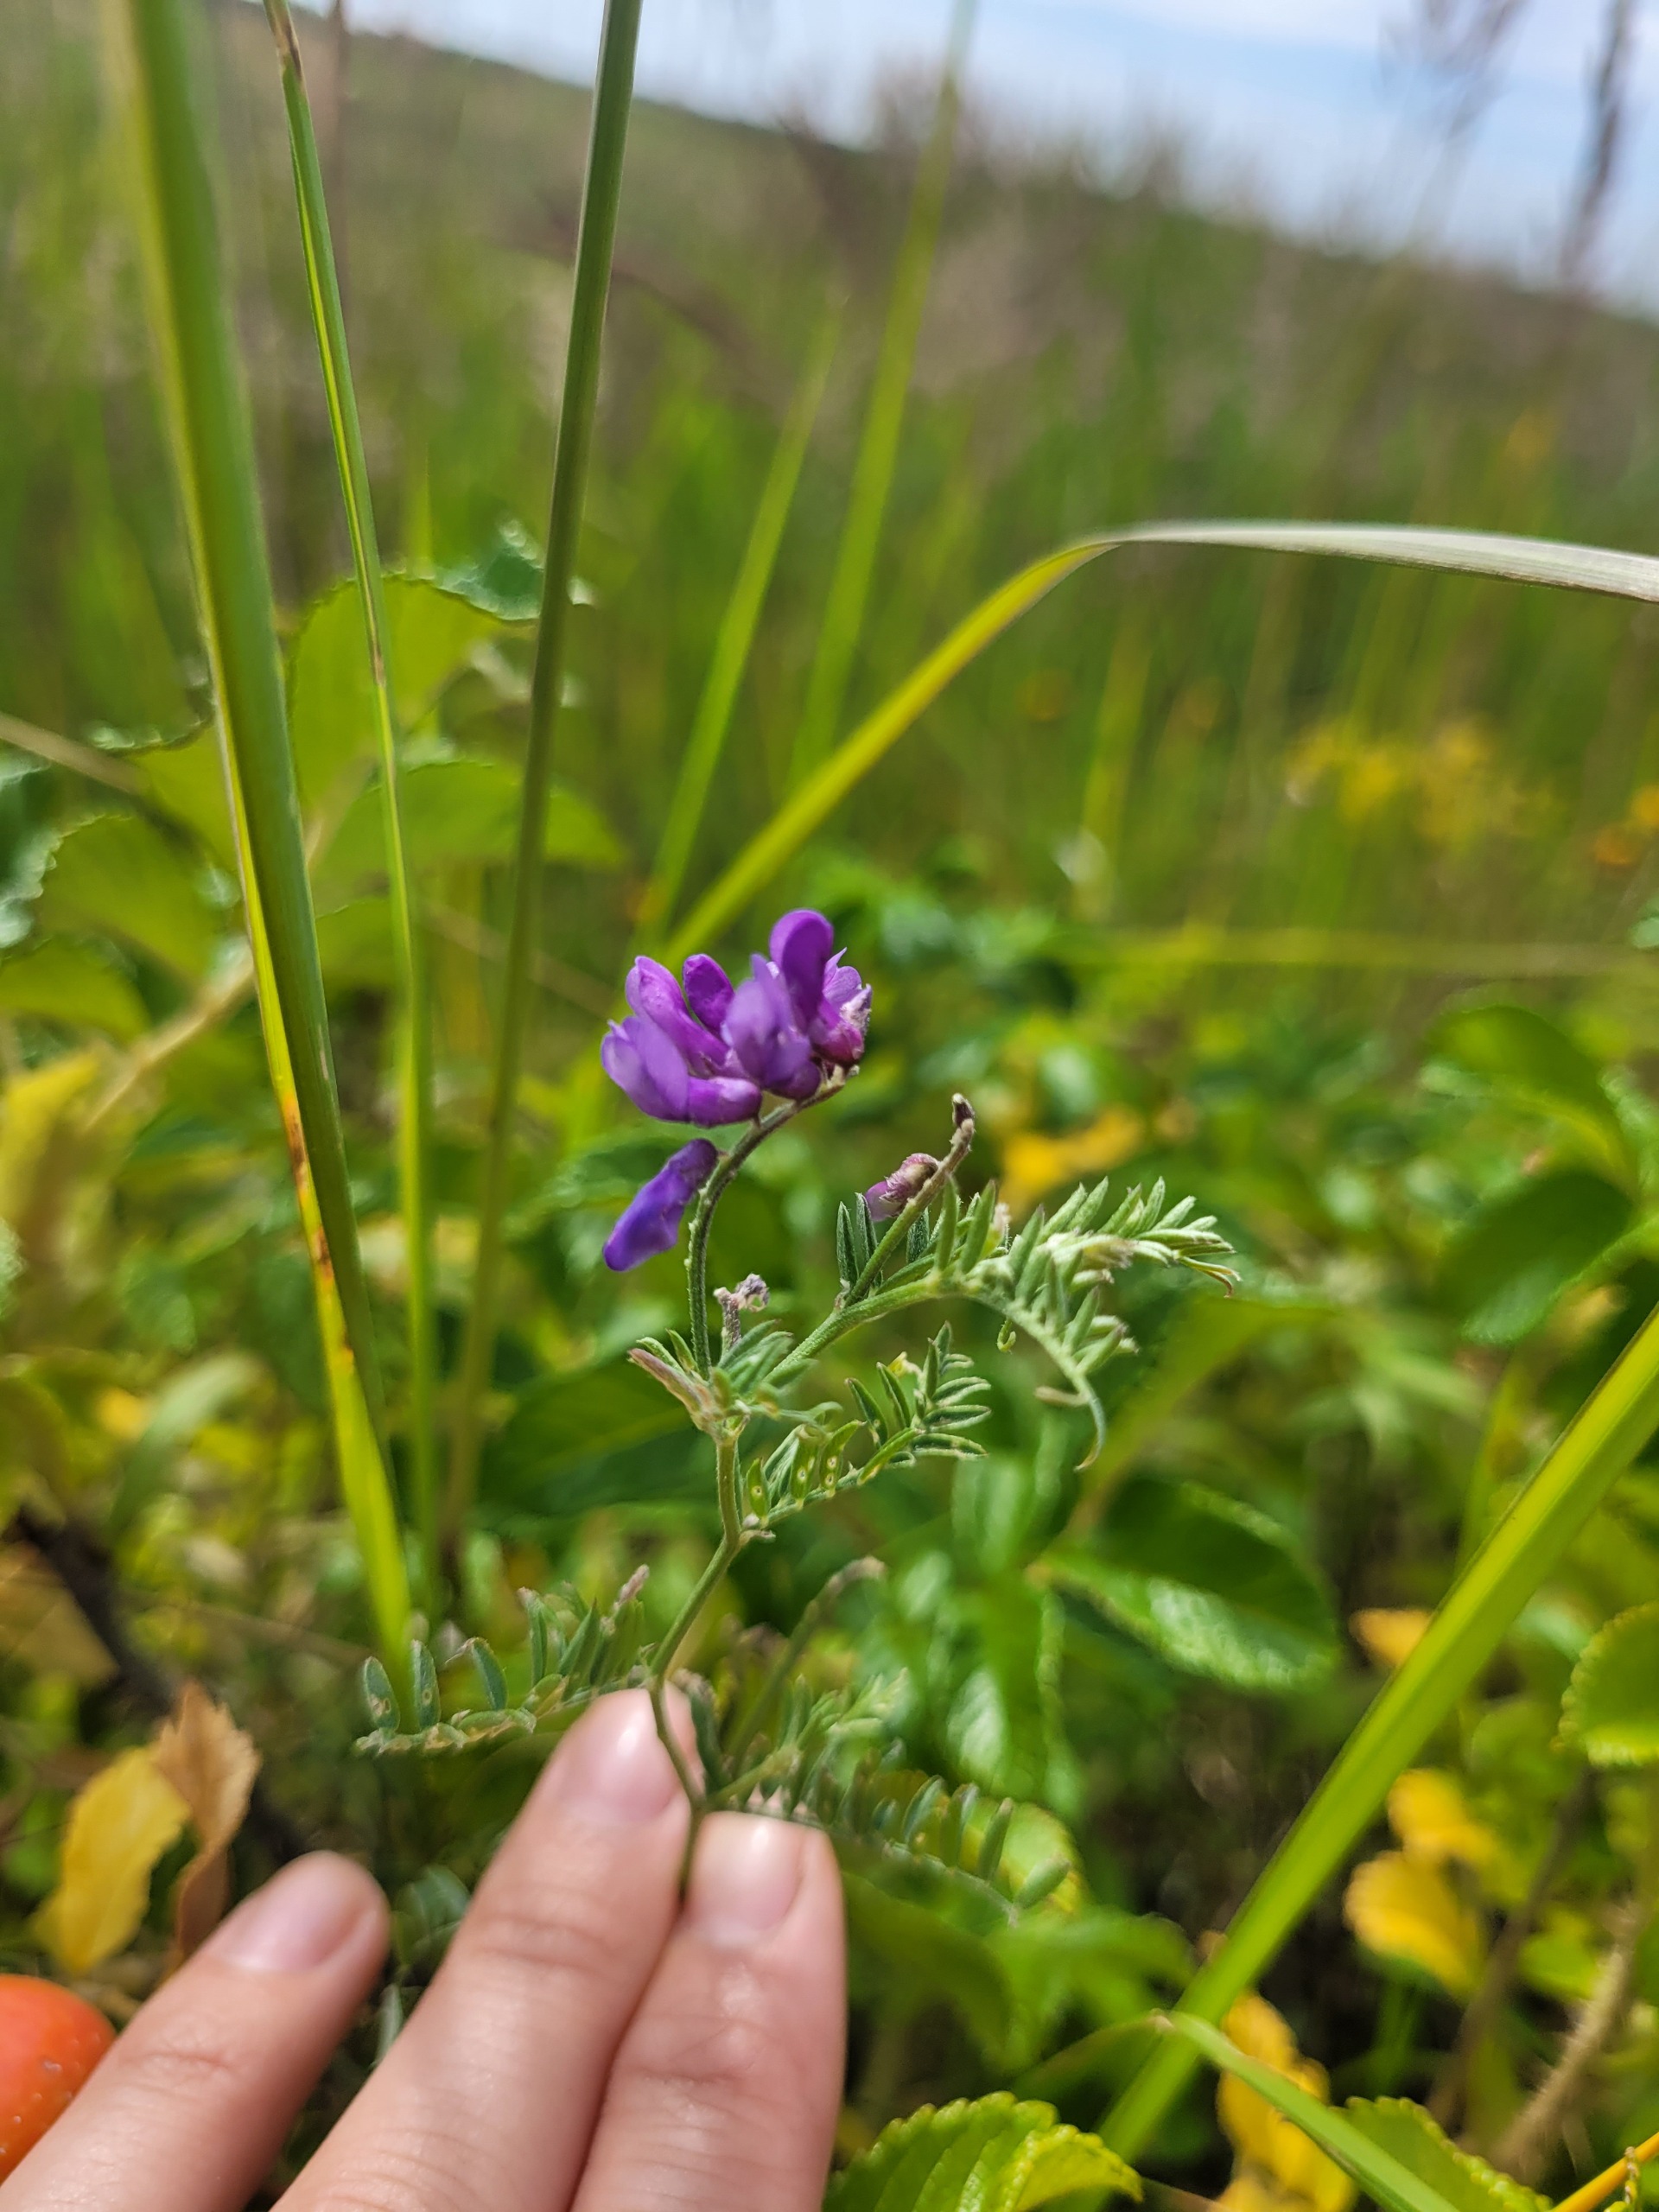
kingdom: Plantae
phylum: Tracheophyta
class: Magnoliopsida
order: Fabales
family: Fabaceae
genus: Vicia
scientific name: Vicia cracca
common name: Muse-vikke
